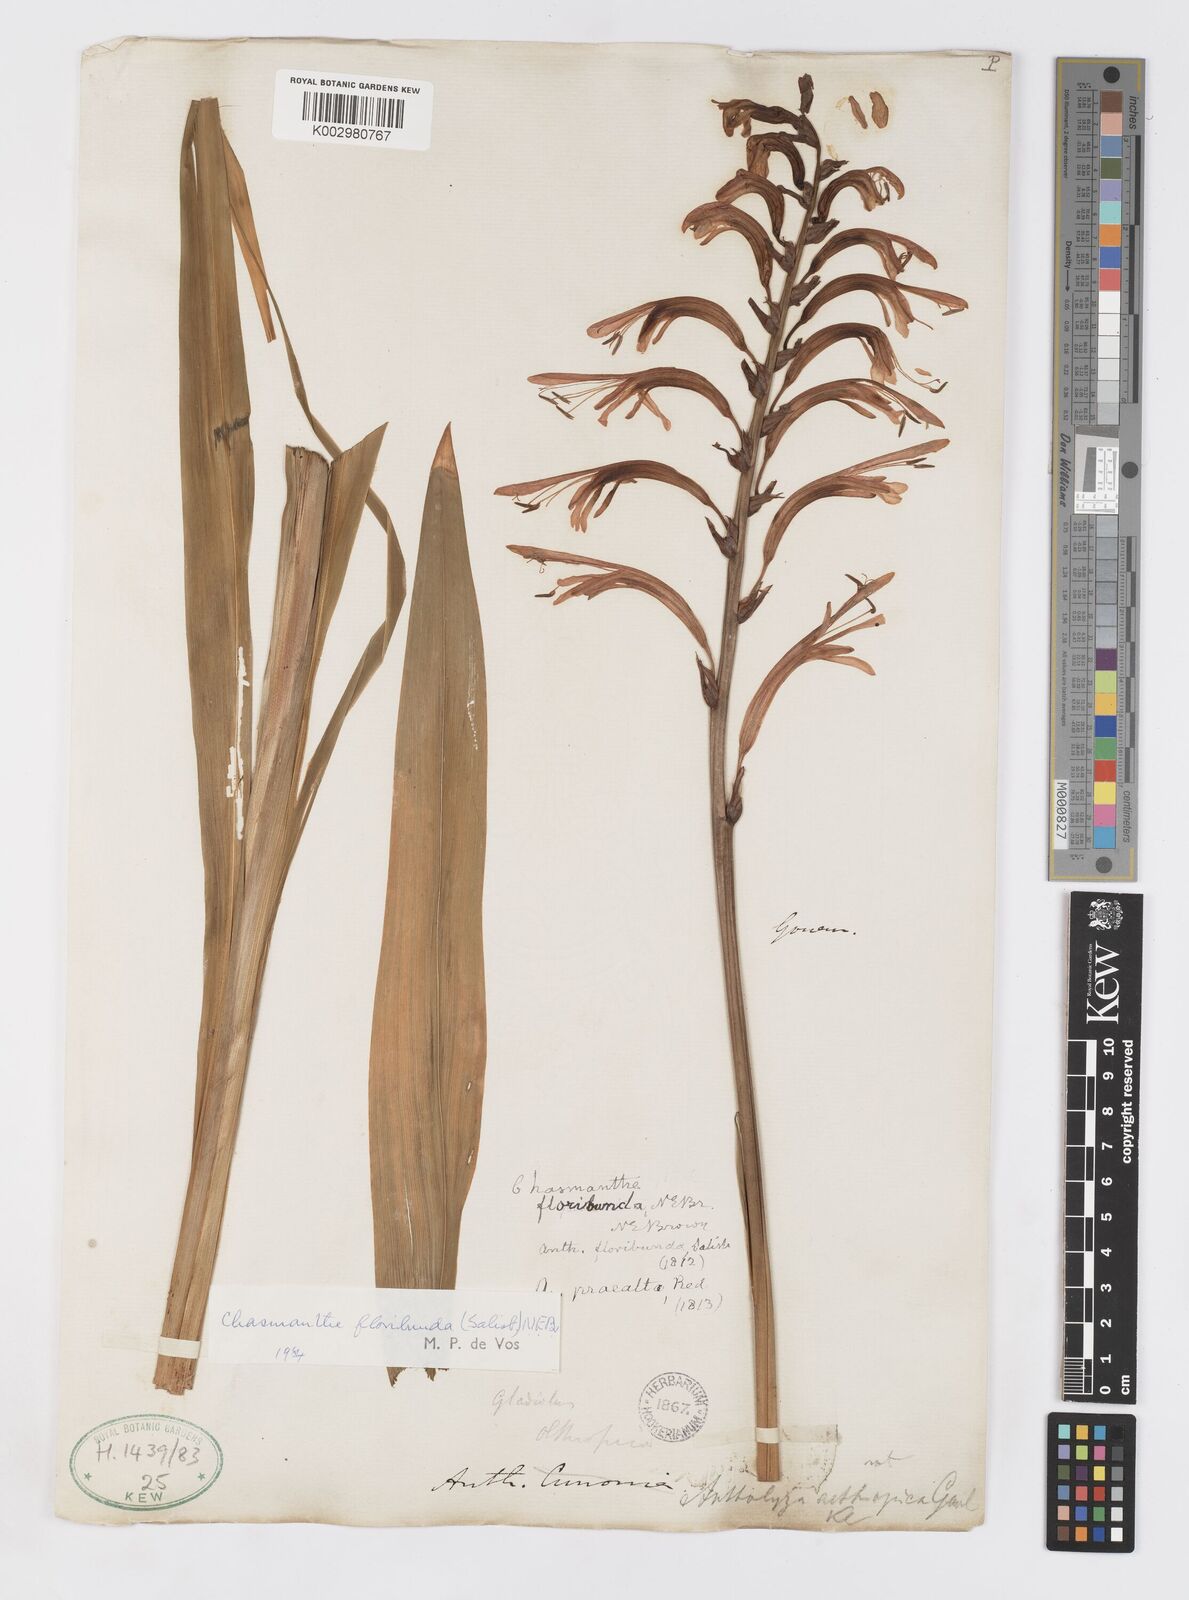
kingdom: Plantae
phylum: Tracheophyta
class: Liliopsida
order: Asparagales
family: Iridaceae
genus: Chasmanthe
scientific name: Chasmanthe floribunda
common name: African cornflag
